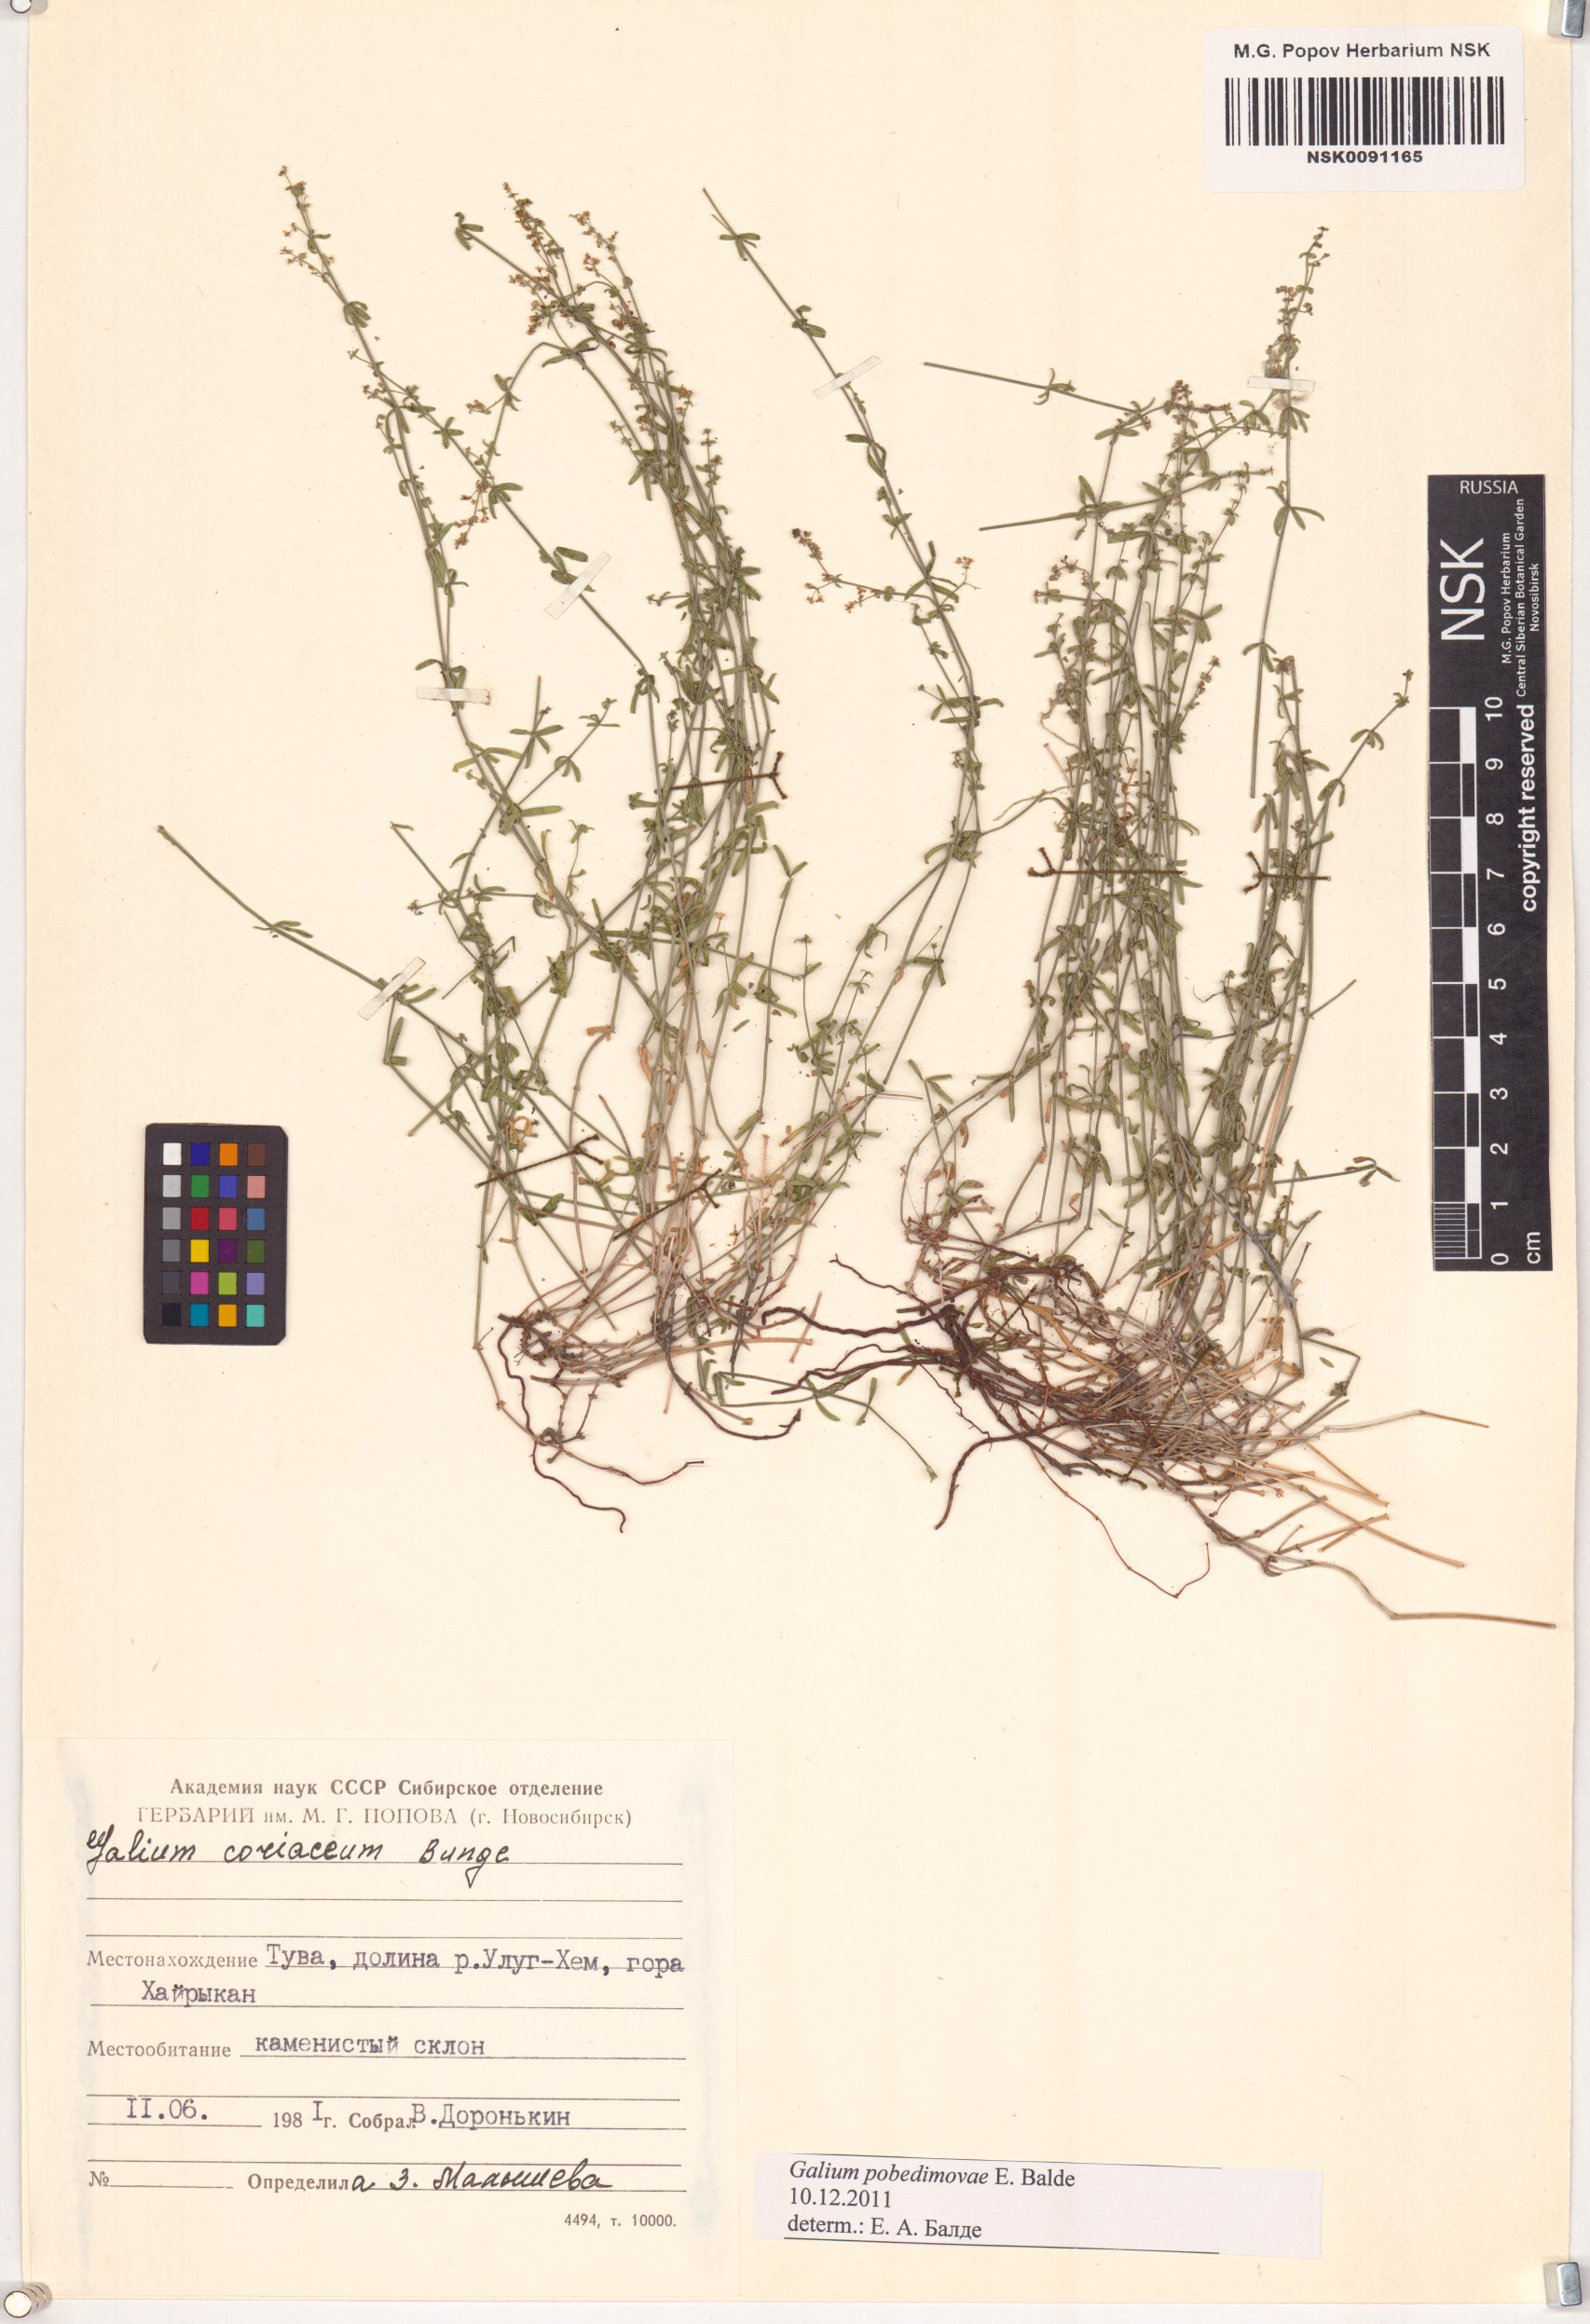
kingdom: Plantae
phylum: Tracheophyta
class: Magnoliopsida
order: Gentianales
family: Rubiaceae
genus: Galium
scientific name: Galium pobedimovae
